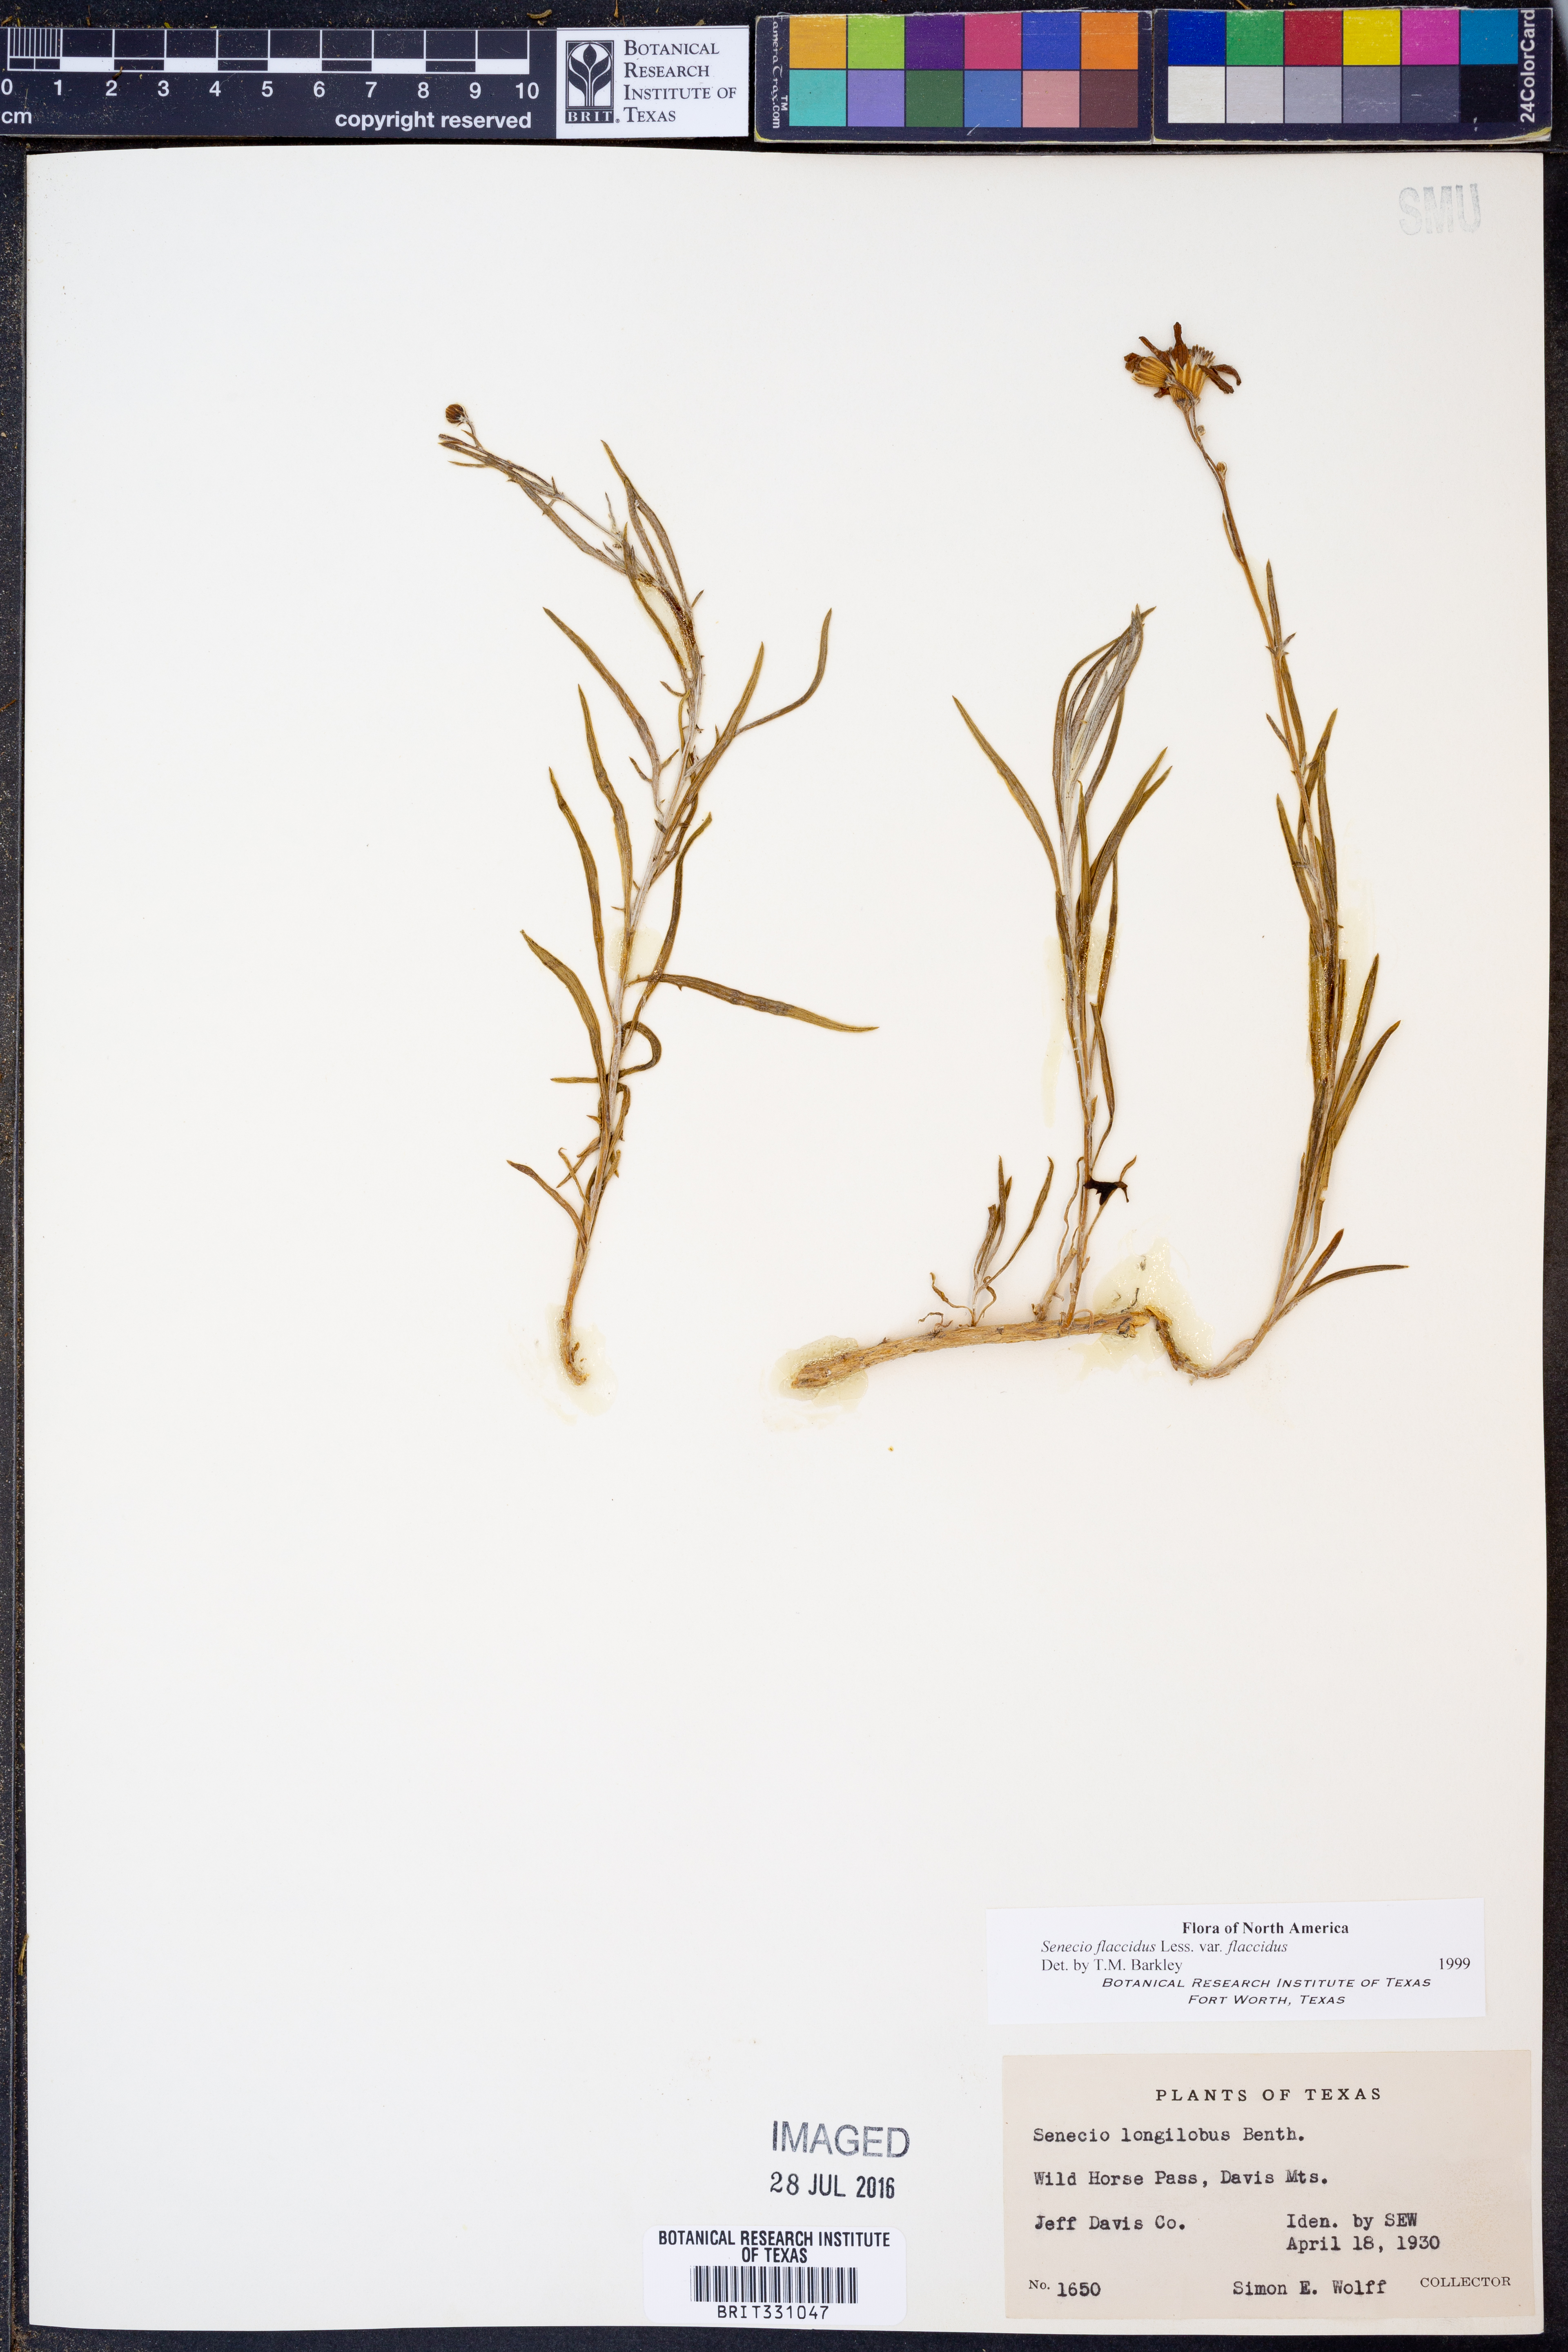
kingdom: Plantae
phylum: Tracheophyta
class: Magnoliopsida
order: Asterales
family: Asteraceae
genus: Senecio
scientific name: Senecio flaccidus
